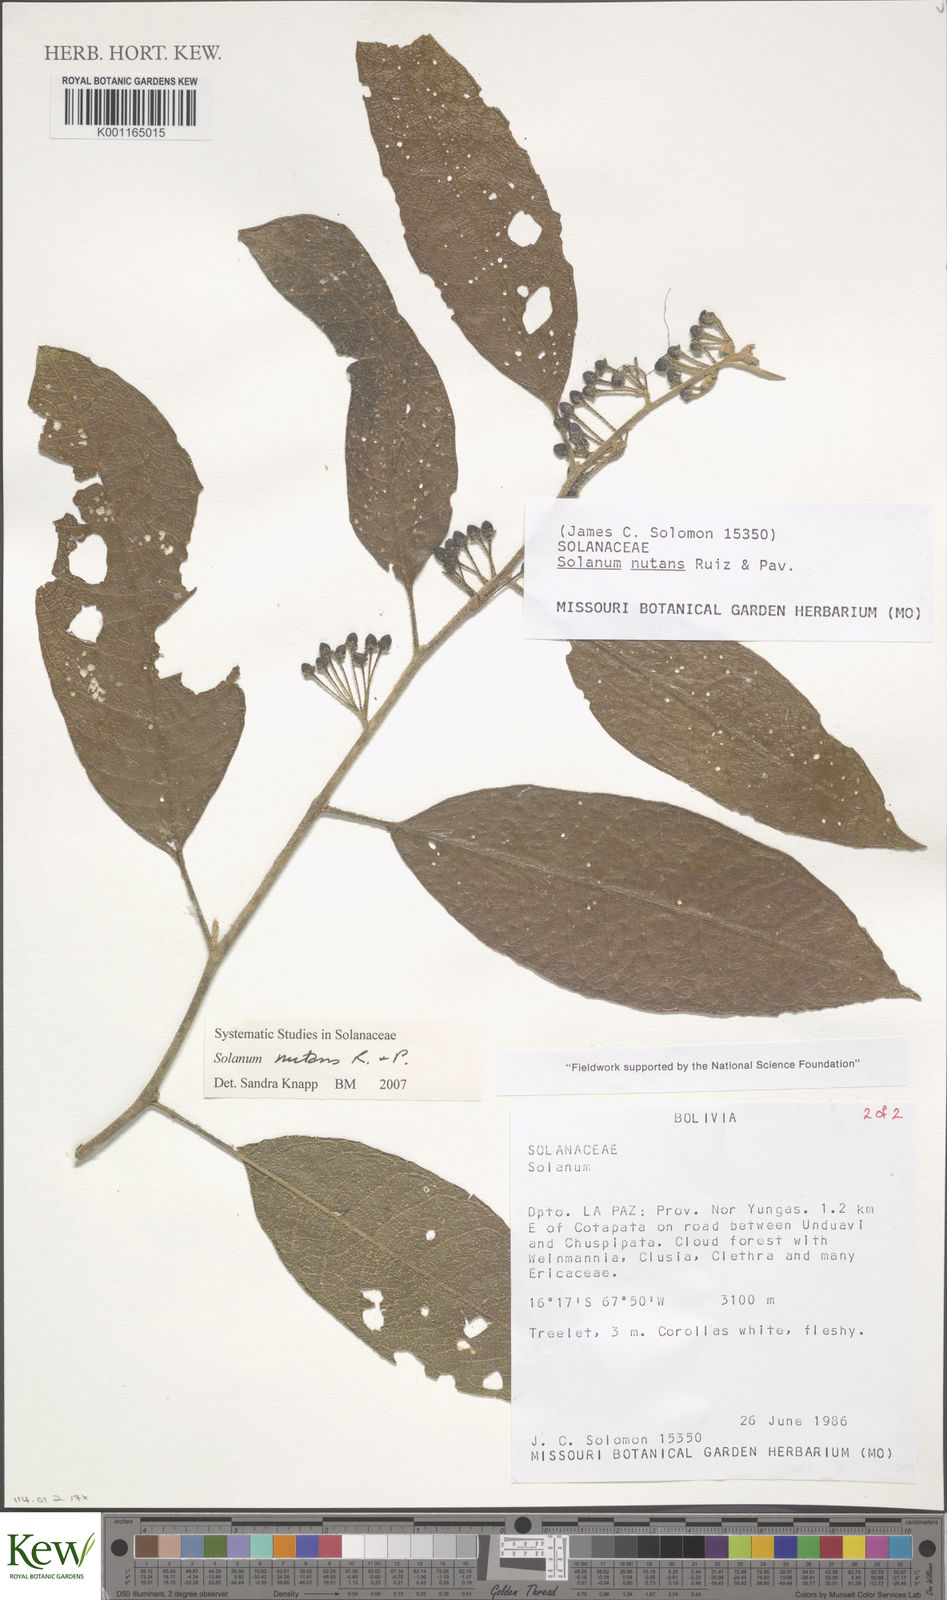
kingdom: Plantae
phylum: Tracheophyta
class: Magnoliopsida
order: Solanales
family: Solanaceae
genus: Solanum
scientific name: Solanum nutans
